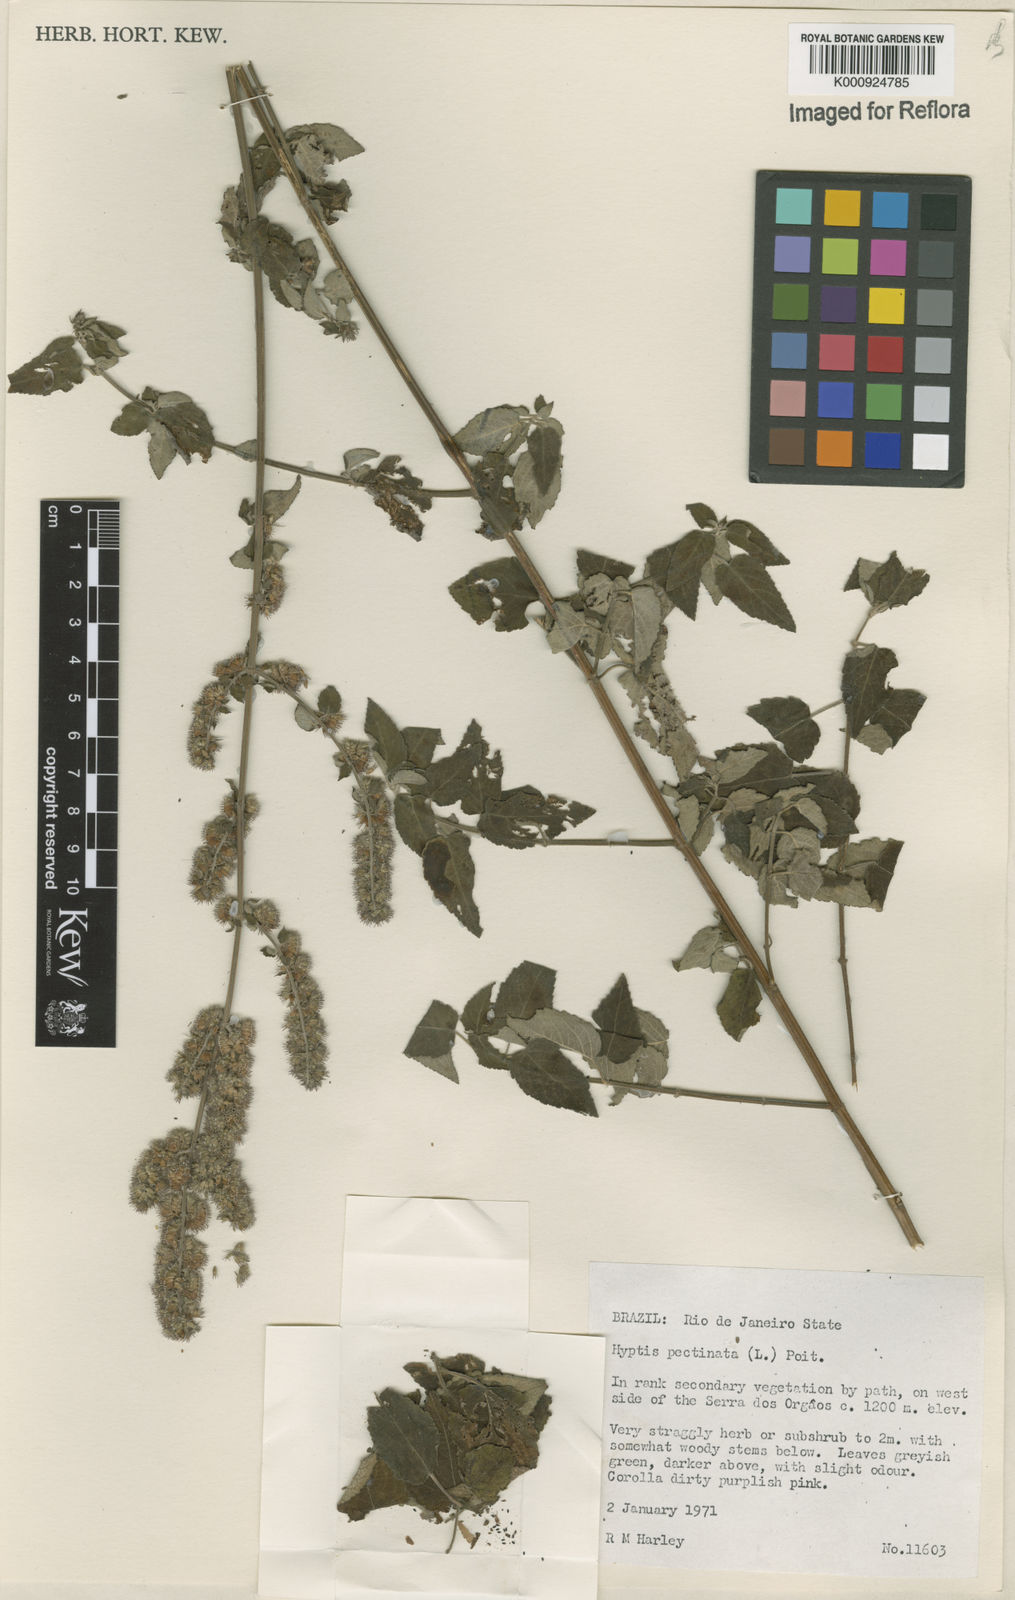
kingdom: Plantae
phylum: Tracheophyta
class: Magnoliopsida
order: Lamiales
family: Lamiaceae
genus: Mesosphaerum
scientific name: Mesosphaerum pectinatum
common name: Comb hyptis
